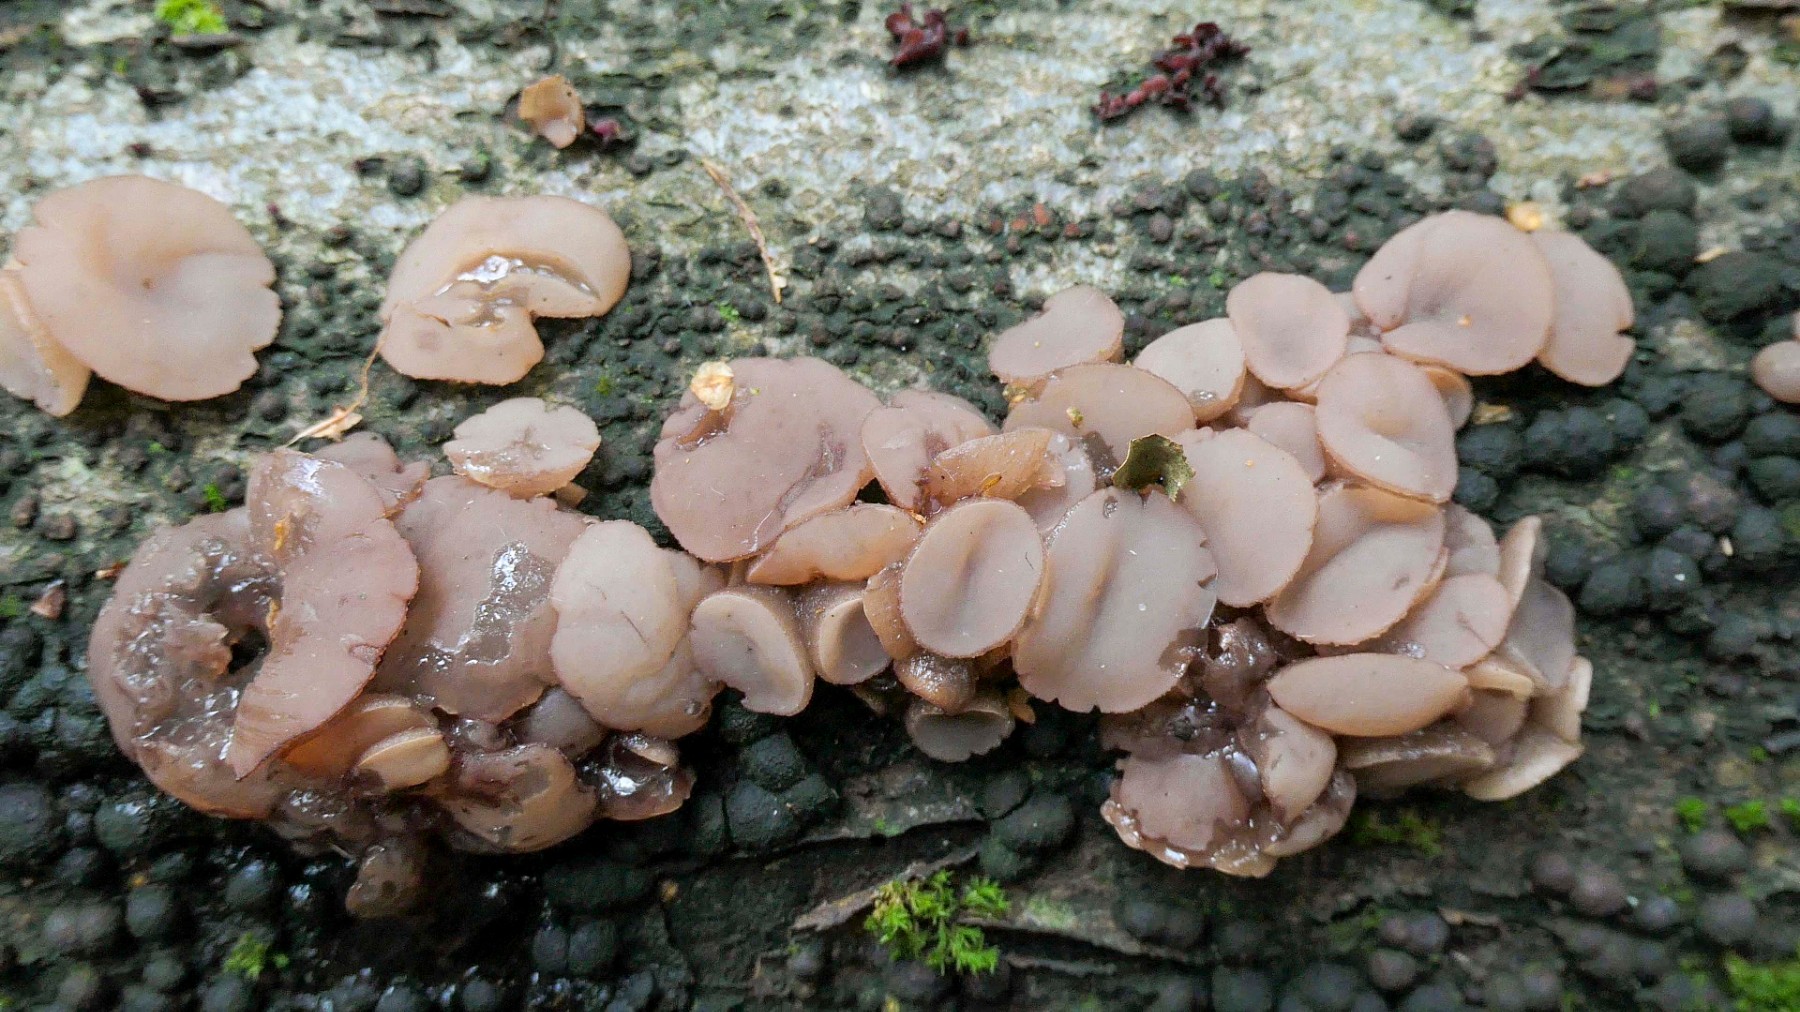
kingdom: Fungi
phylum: Ascomycota
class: Leotiomycetes
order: Helotiales
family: Gelatinodiscaceae
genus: Neobulgaria
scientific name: Neobulgaria pura
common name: bleg bævreskive
